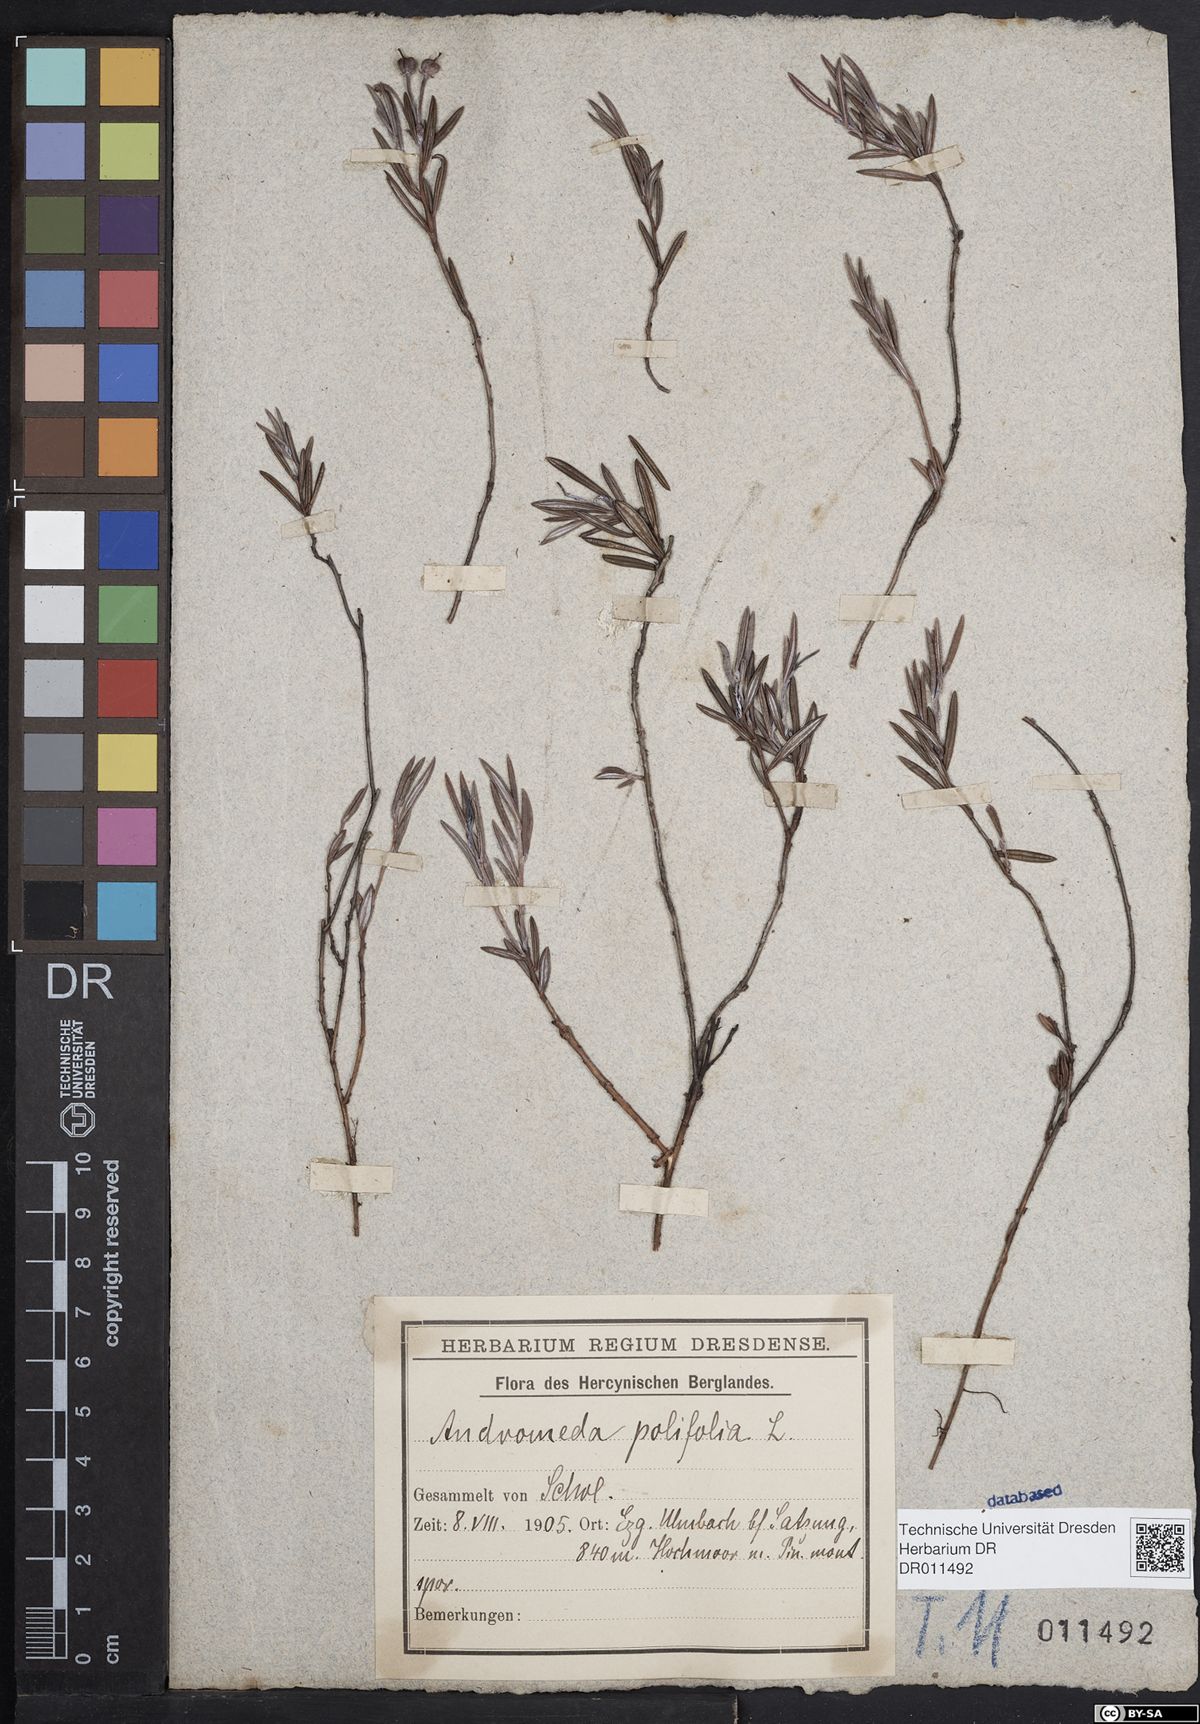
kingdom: Plantae
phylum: Tracheophyta
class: Magnoliopsida
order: Ericales
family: Ericaceae
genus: Andromeda
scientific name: Andromeda polifolia
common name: Bog-rosemary
